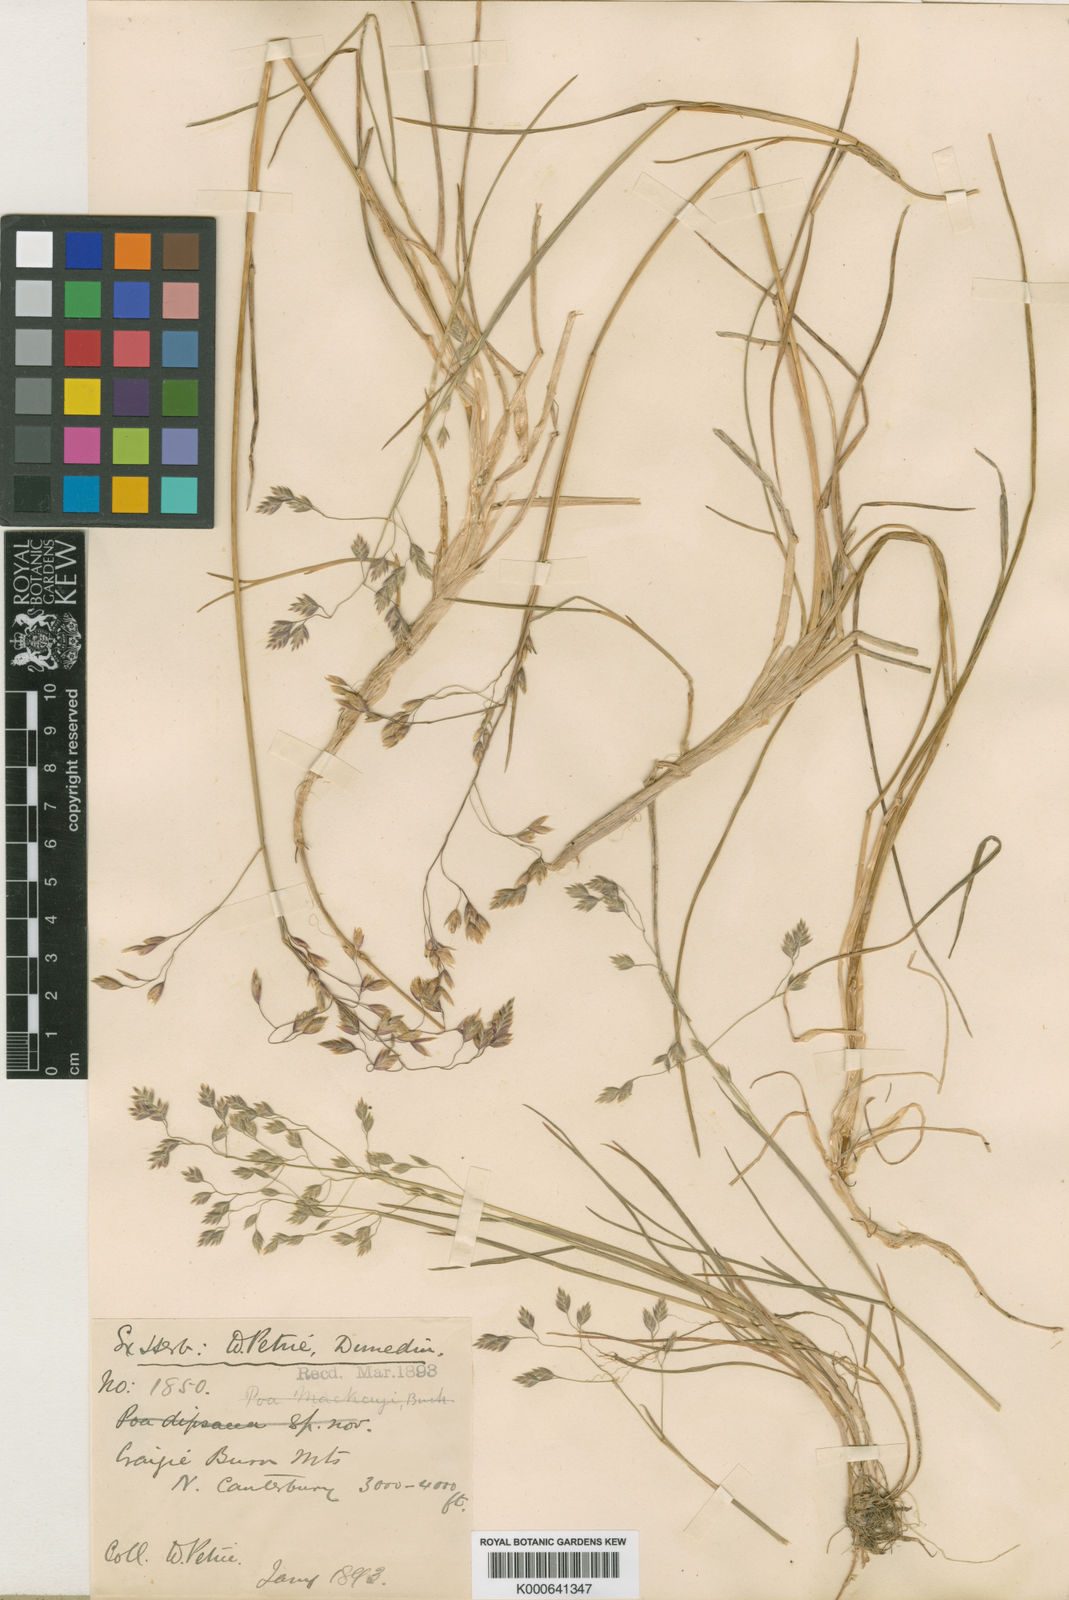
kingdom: Plantae
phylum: Tracheophyta
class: Liliopsida
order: Poales
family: Poaceae
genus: Poa
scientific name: Poa dipsacea
